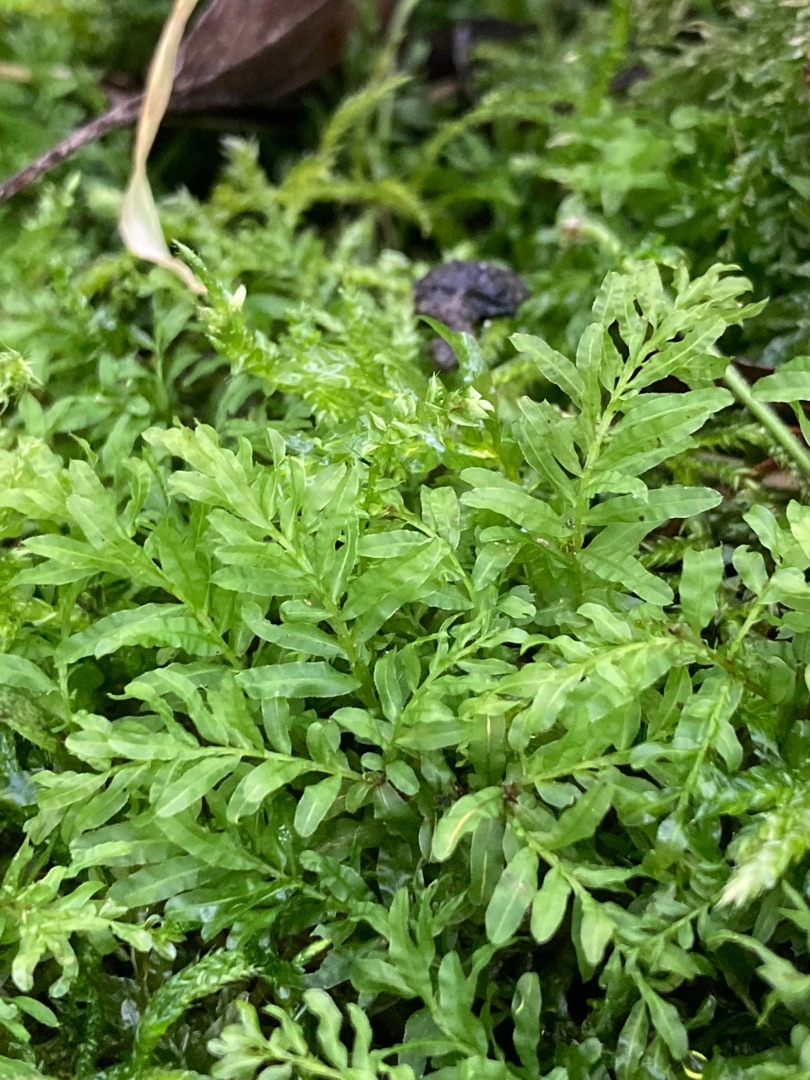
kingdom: Plantae
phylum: Bryophyta
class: Bryopsida
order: Bryales
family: Mniaceae
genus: Plagiomnium
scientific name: Plagiomnium undulatum
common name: Bølget krybstjerne
